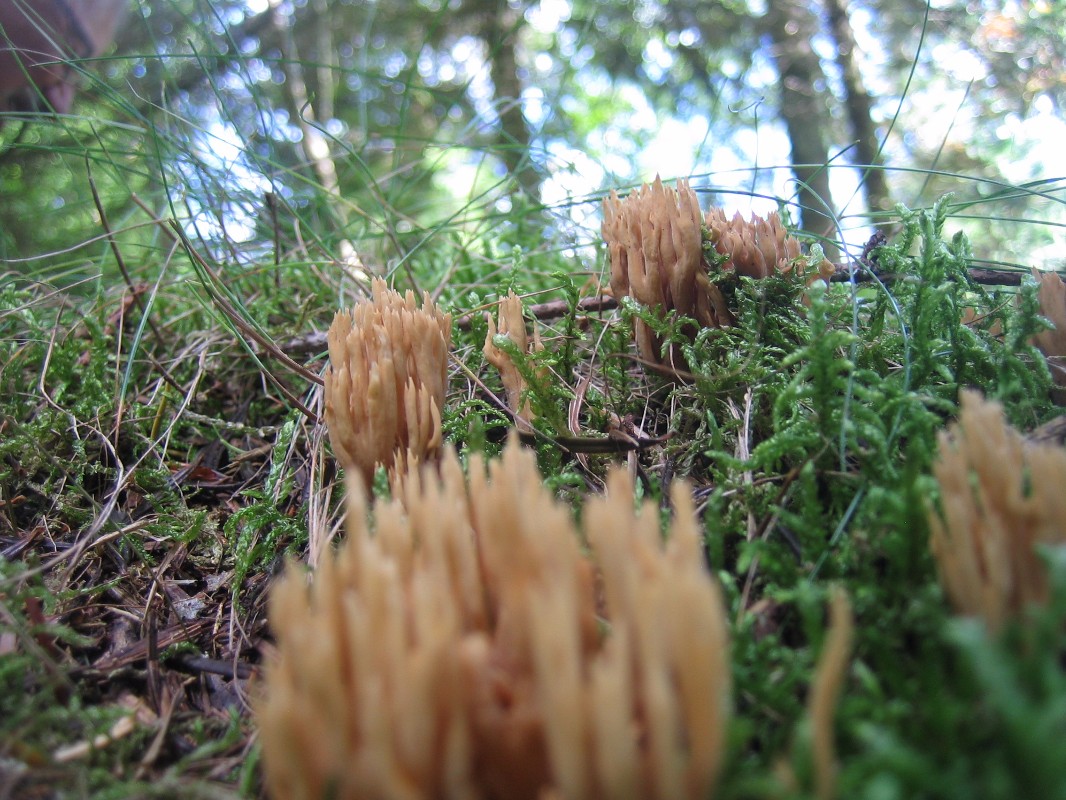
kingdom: Fungi
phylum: Basidiomycota
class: Agaricomycetes
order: Gomphales
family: Gomphaceae
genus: Phaeoclavulina
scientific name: Phaeoclavulina eumorpha
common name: gran-koralsvamp
